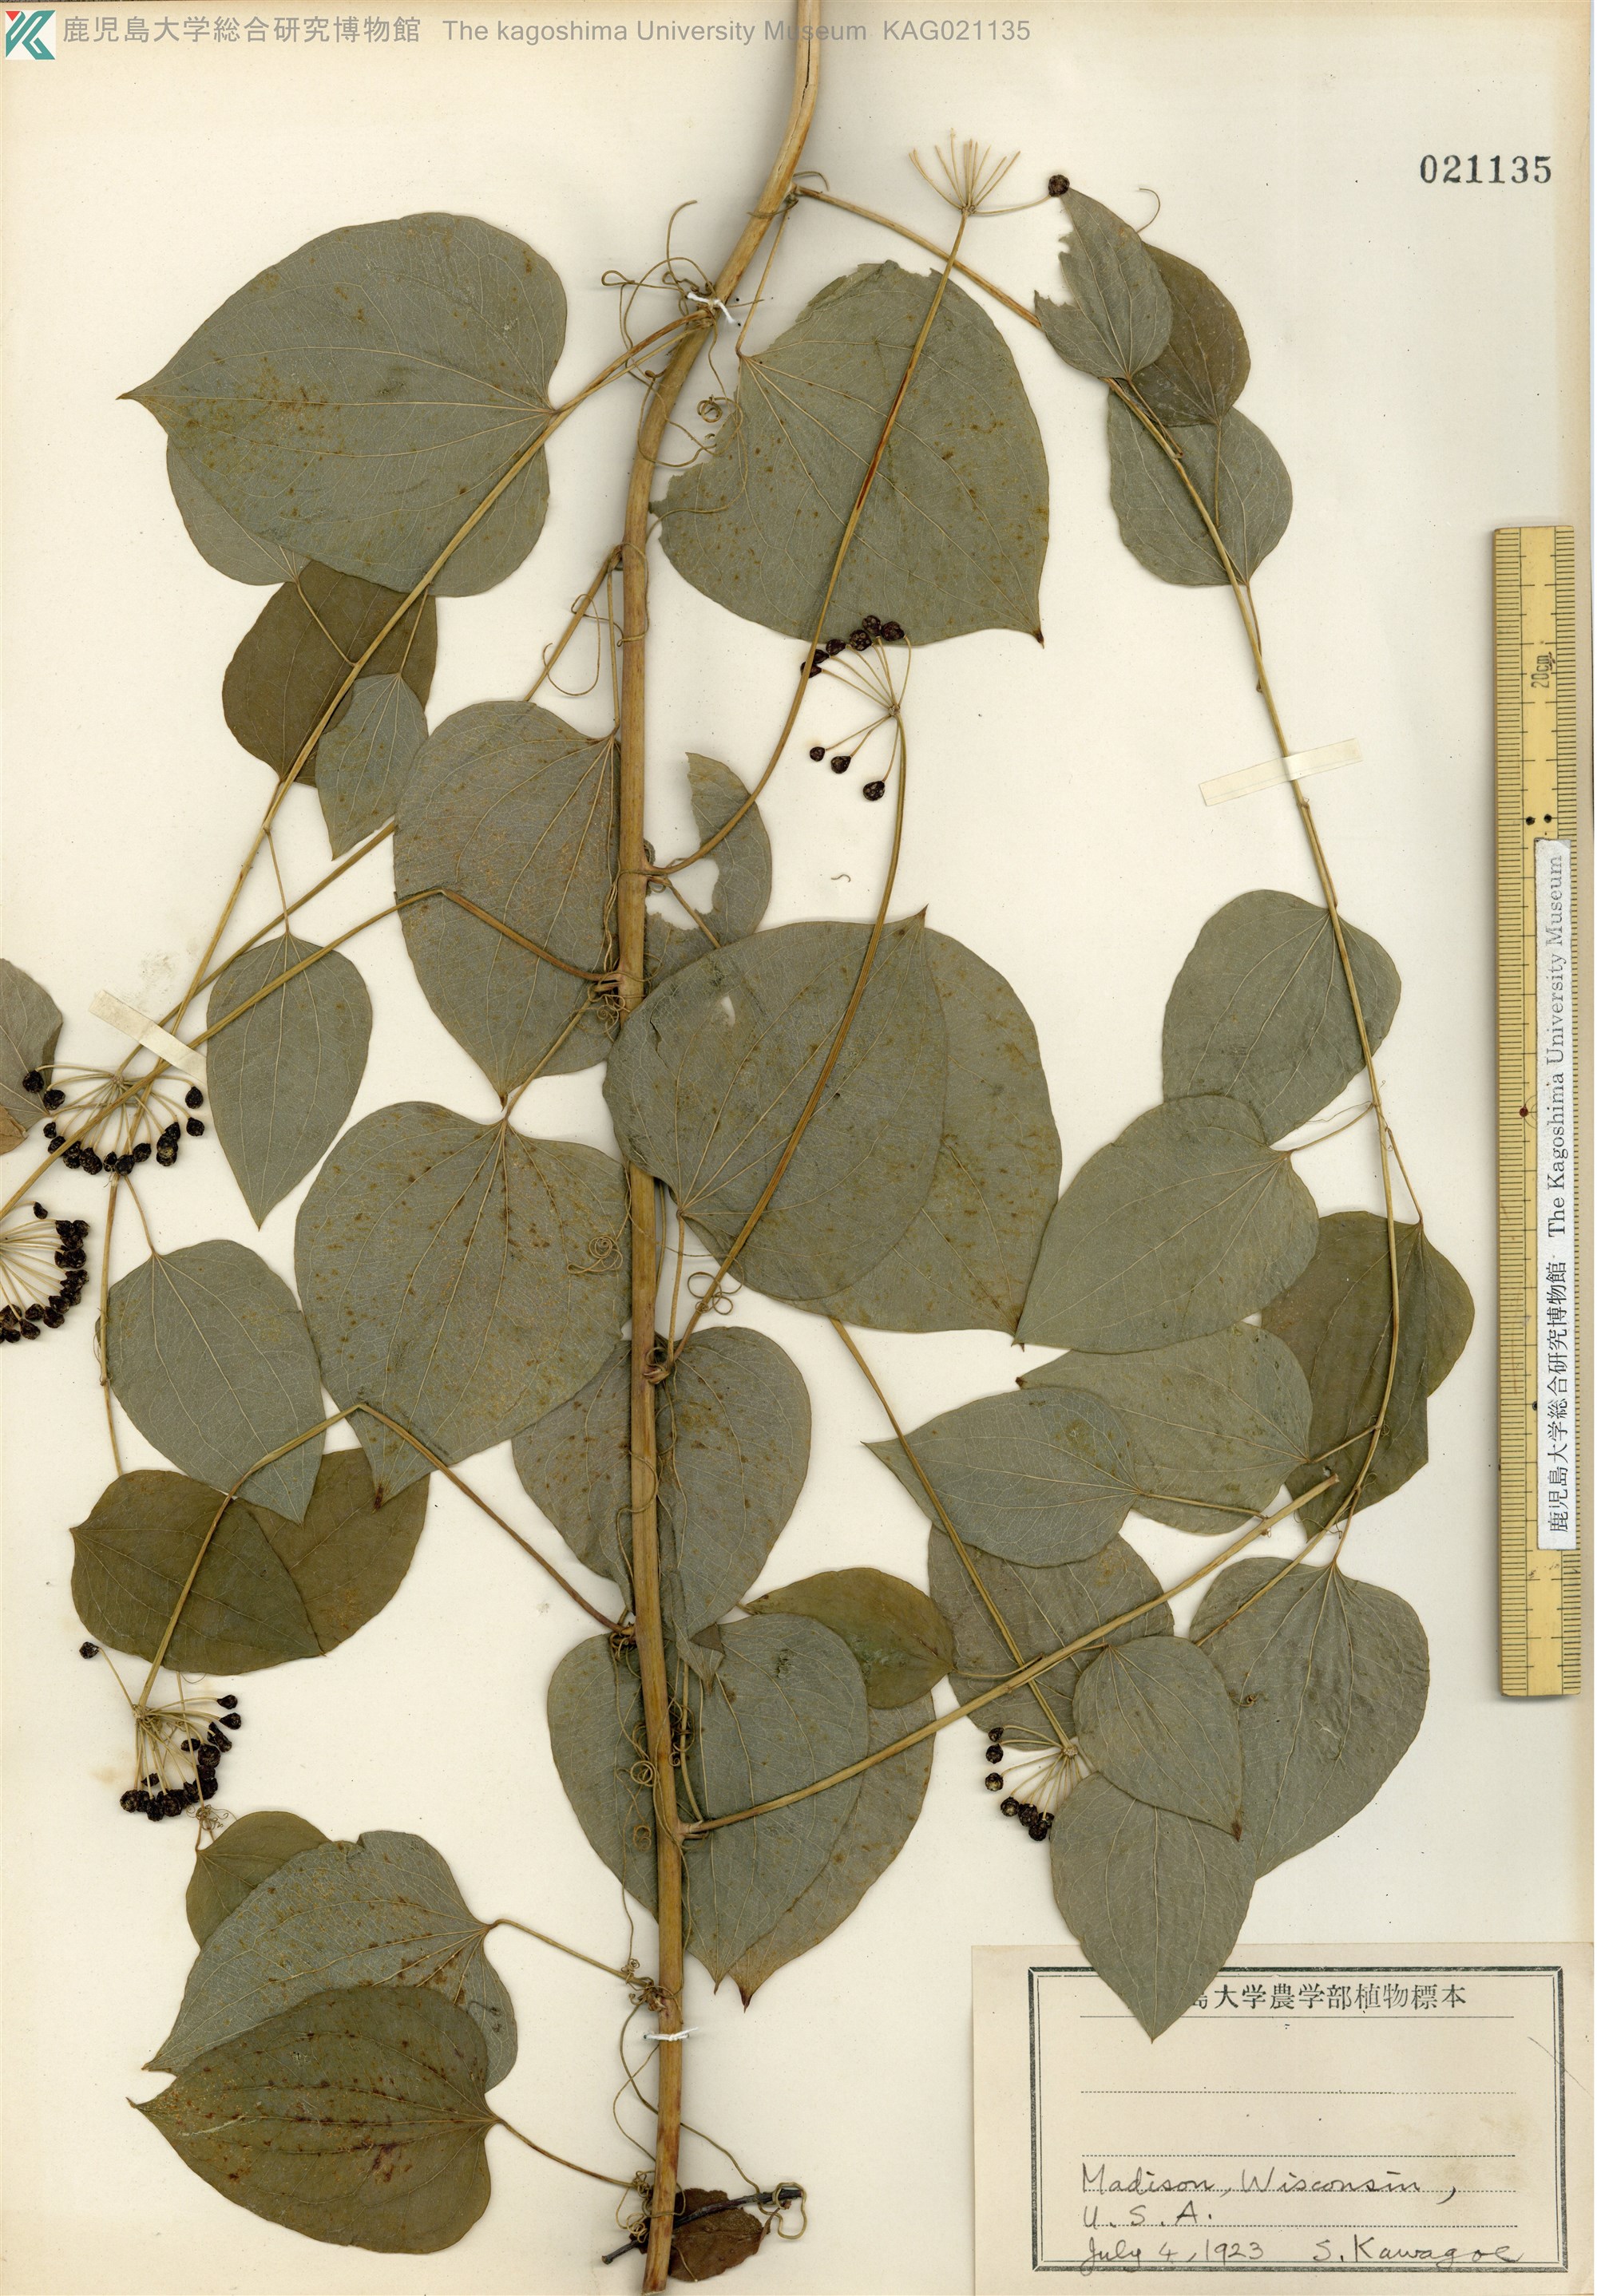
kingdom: Plantae
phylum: Tracheophyta
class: Liliopsida
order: Liliales
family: Smilacaceae
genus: Smilax
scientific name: Smilax herbacea
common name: Jacob's-ladder
